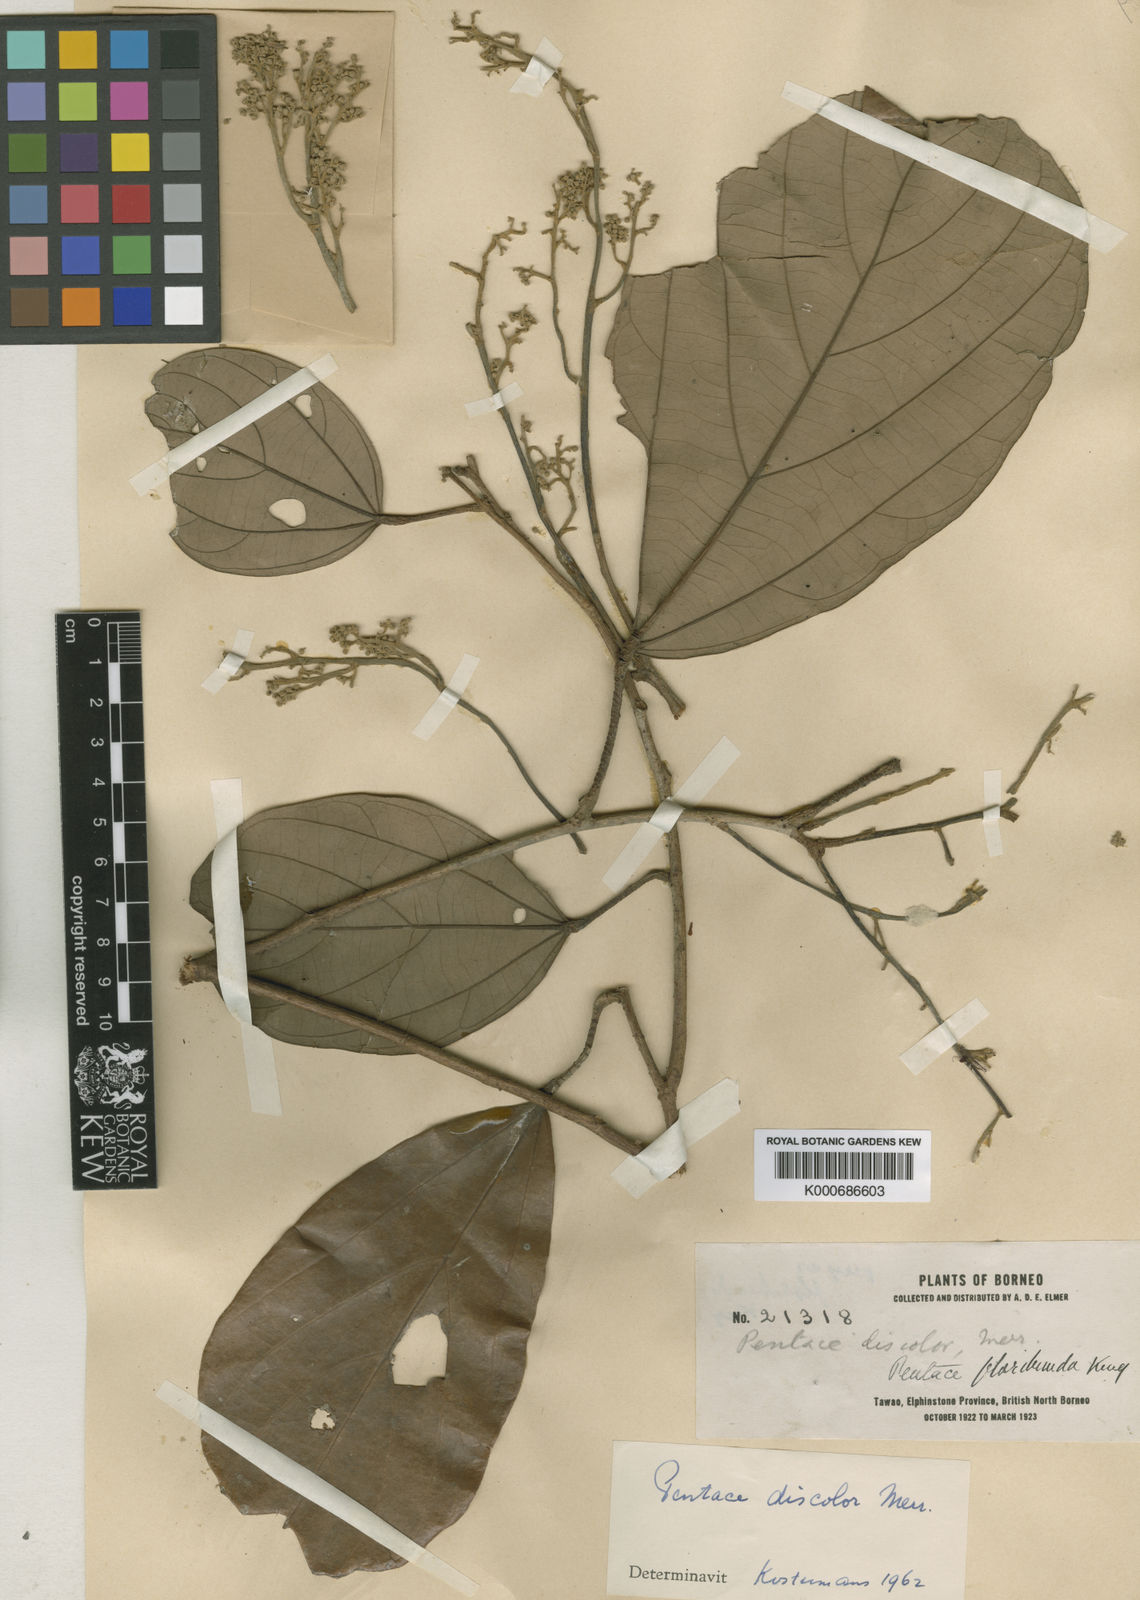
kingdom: Plantae
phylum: Tracheophyta
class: Magnoliopsida
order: Malvales
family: Malvaceae
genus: Pentace
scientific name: Pentace discolor
